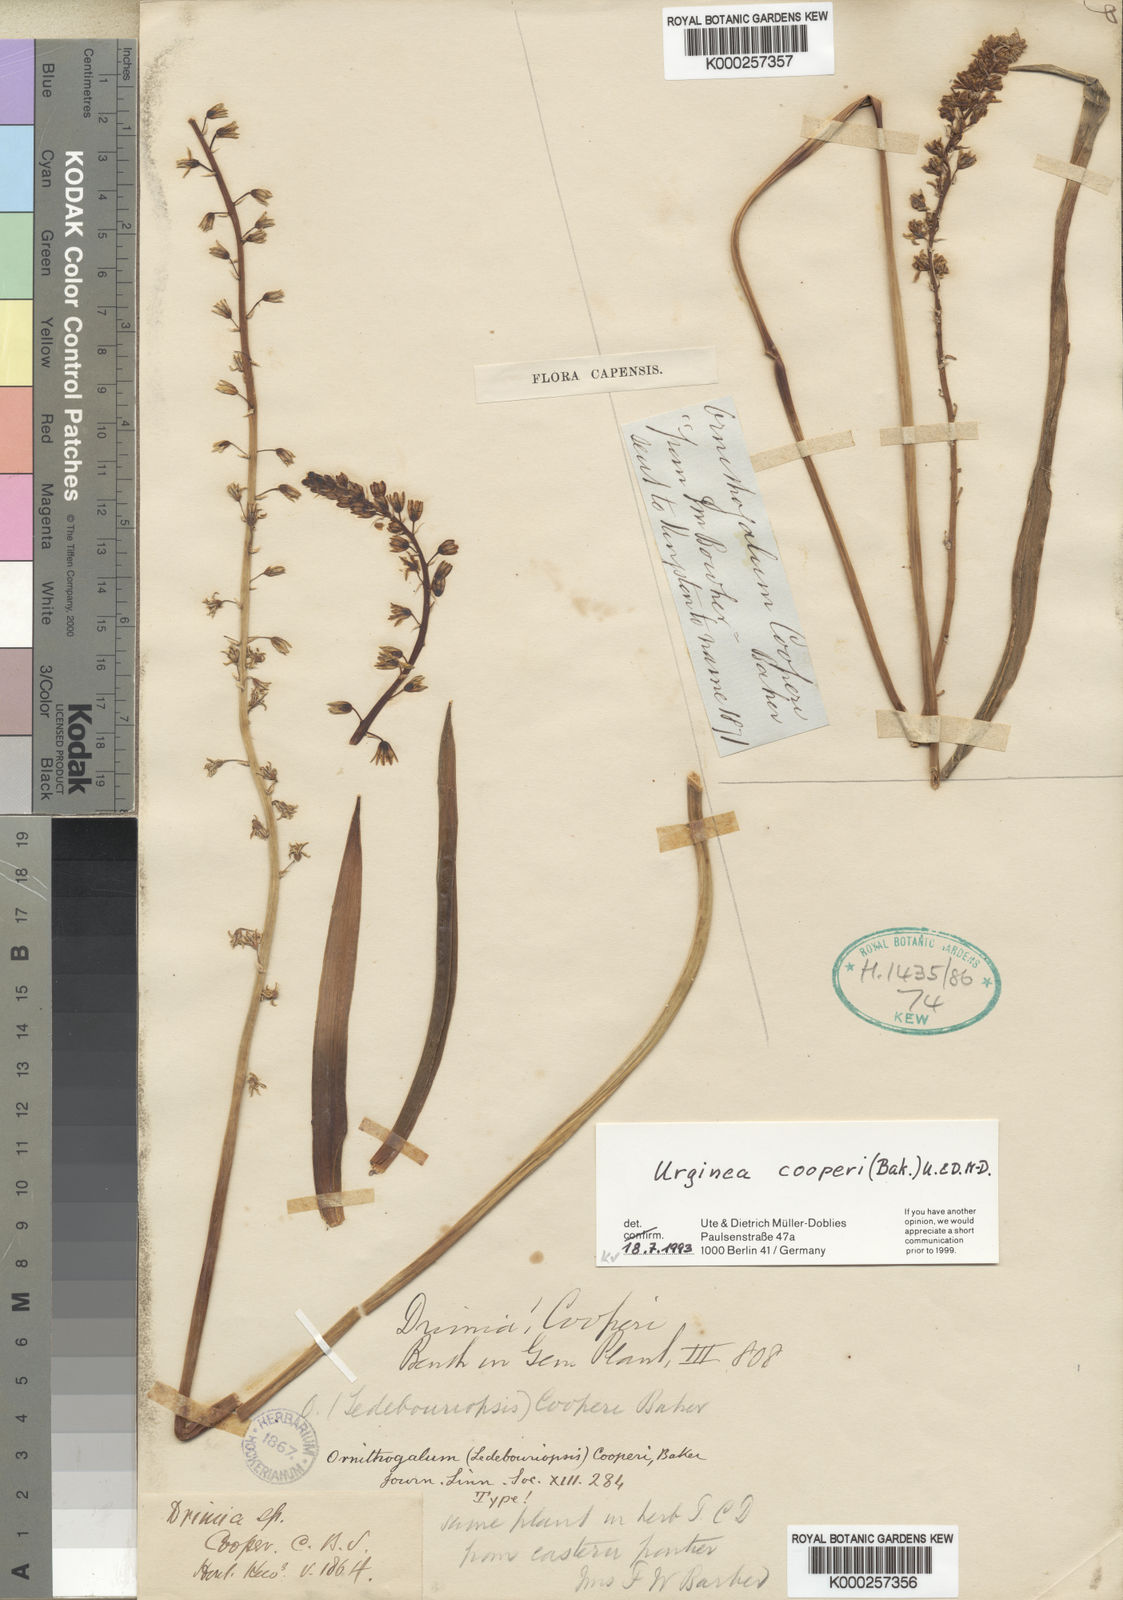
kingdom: Plantae
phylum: Tracheophyta
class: Liliopsida
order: Asparagales
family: Asparagaceae
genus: Ledebouria
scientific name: Ledebouria nitida
